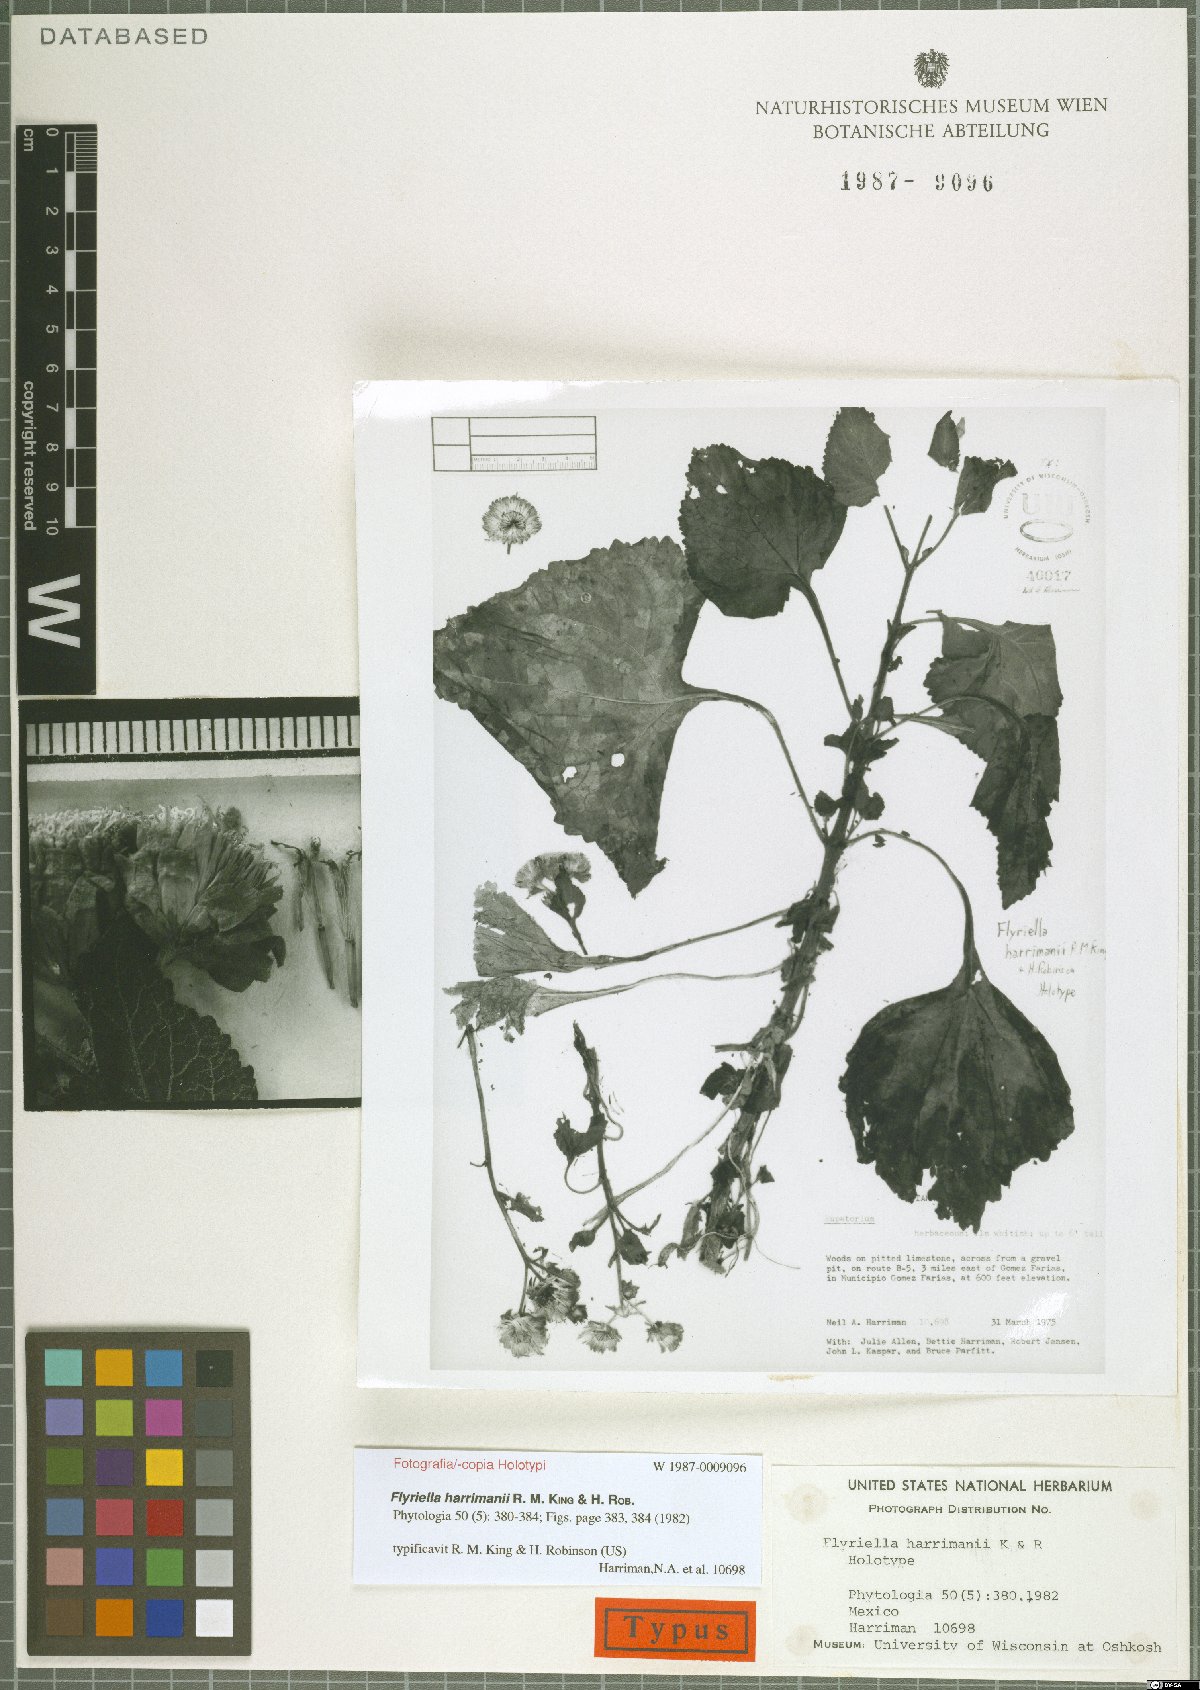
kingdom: Plantae
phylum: Tracheophyta
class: Magnoliopsida
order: Asterales
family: Asteraceae
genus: Flyriella
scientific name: Flyriella harrimanii
